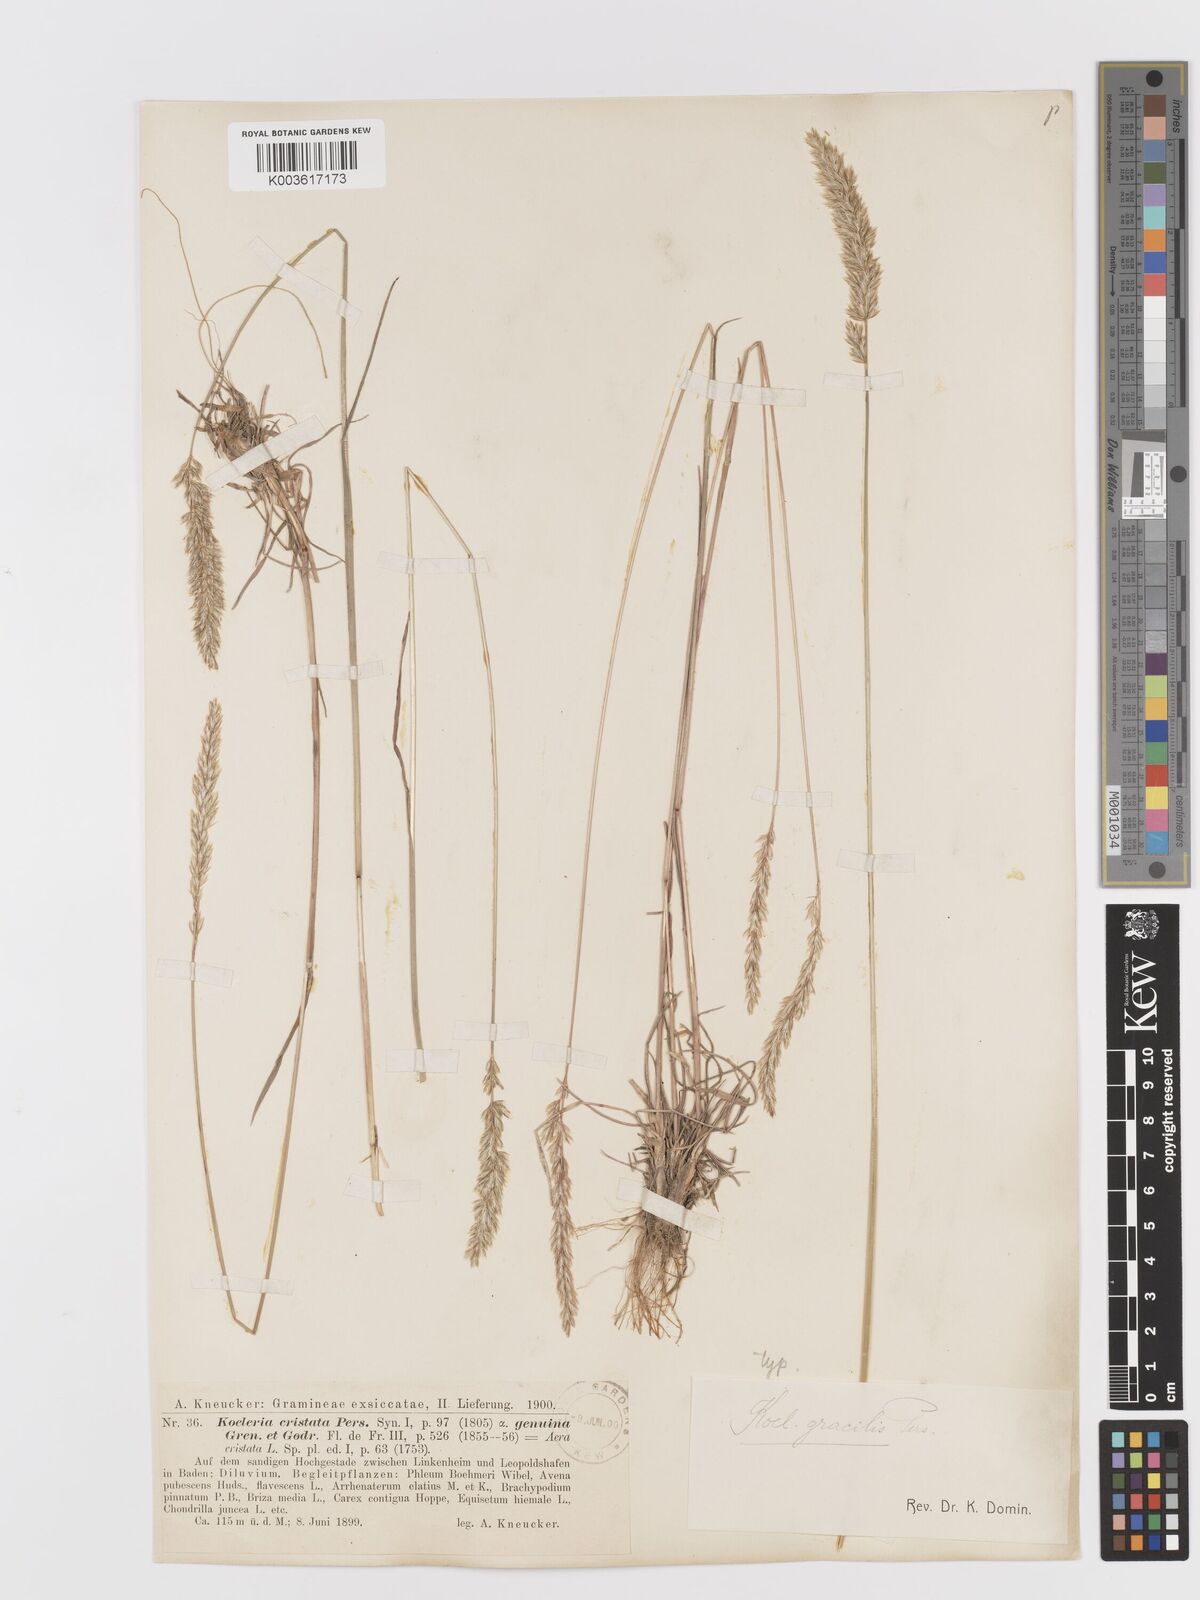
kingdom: Plantae
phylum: Tracheophyta
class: Liliopsida
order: Poales
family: Poaceae
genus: Koeleria
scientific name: Koeleria macrantha
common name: Crested hair-grass
